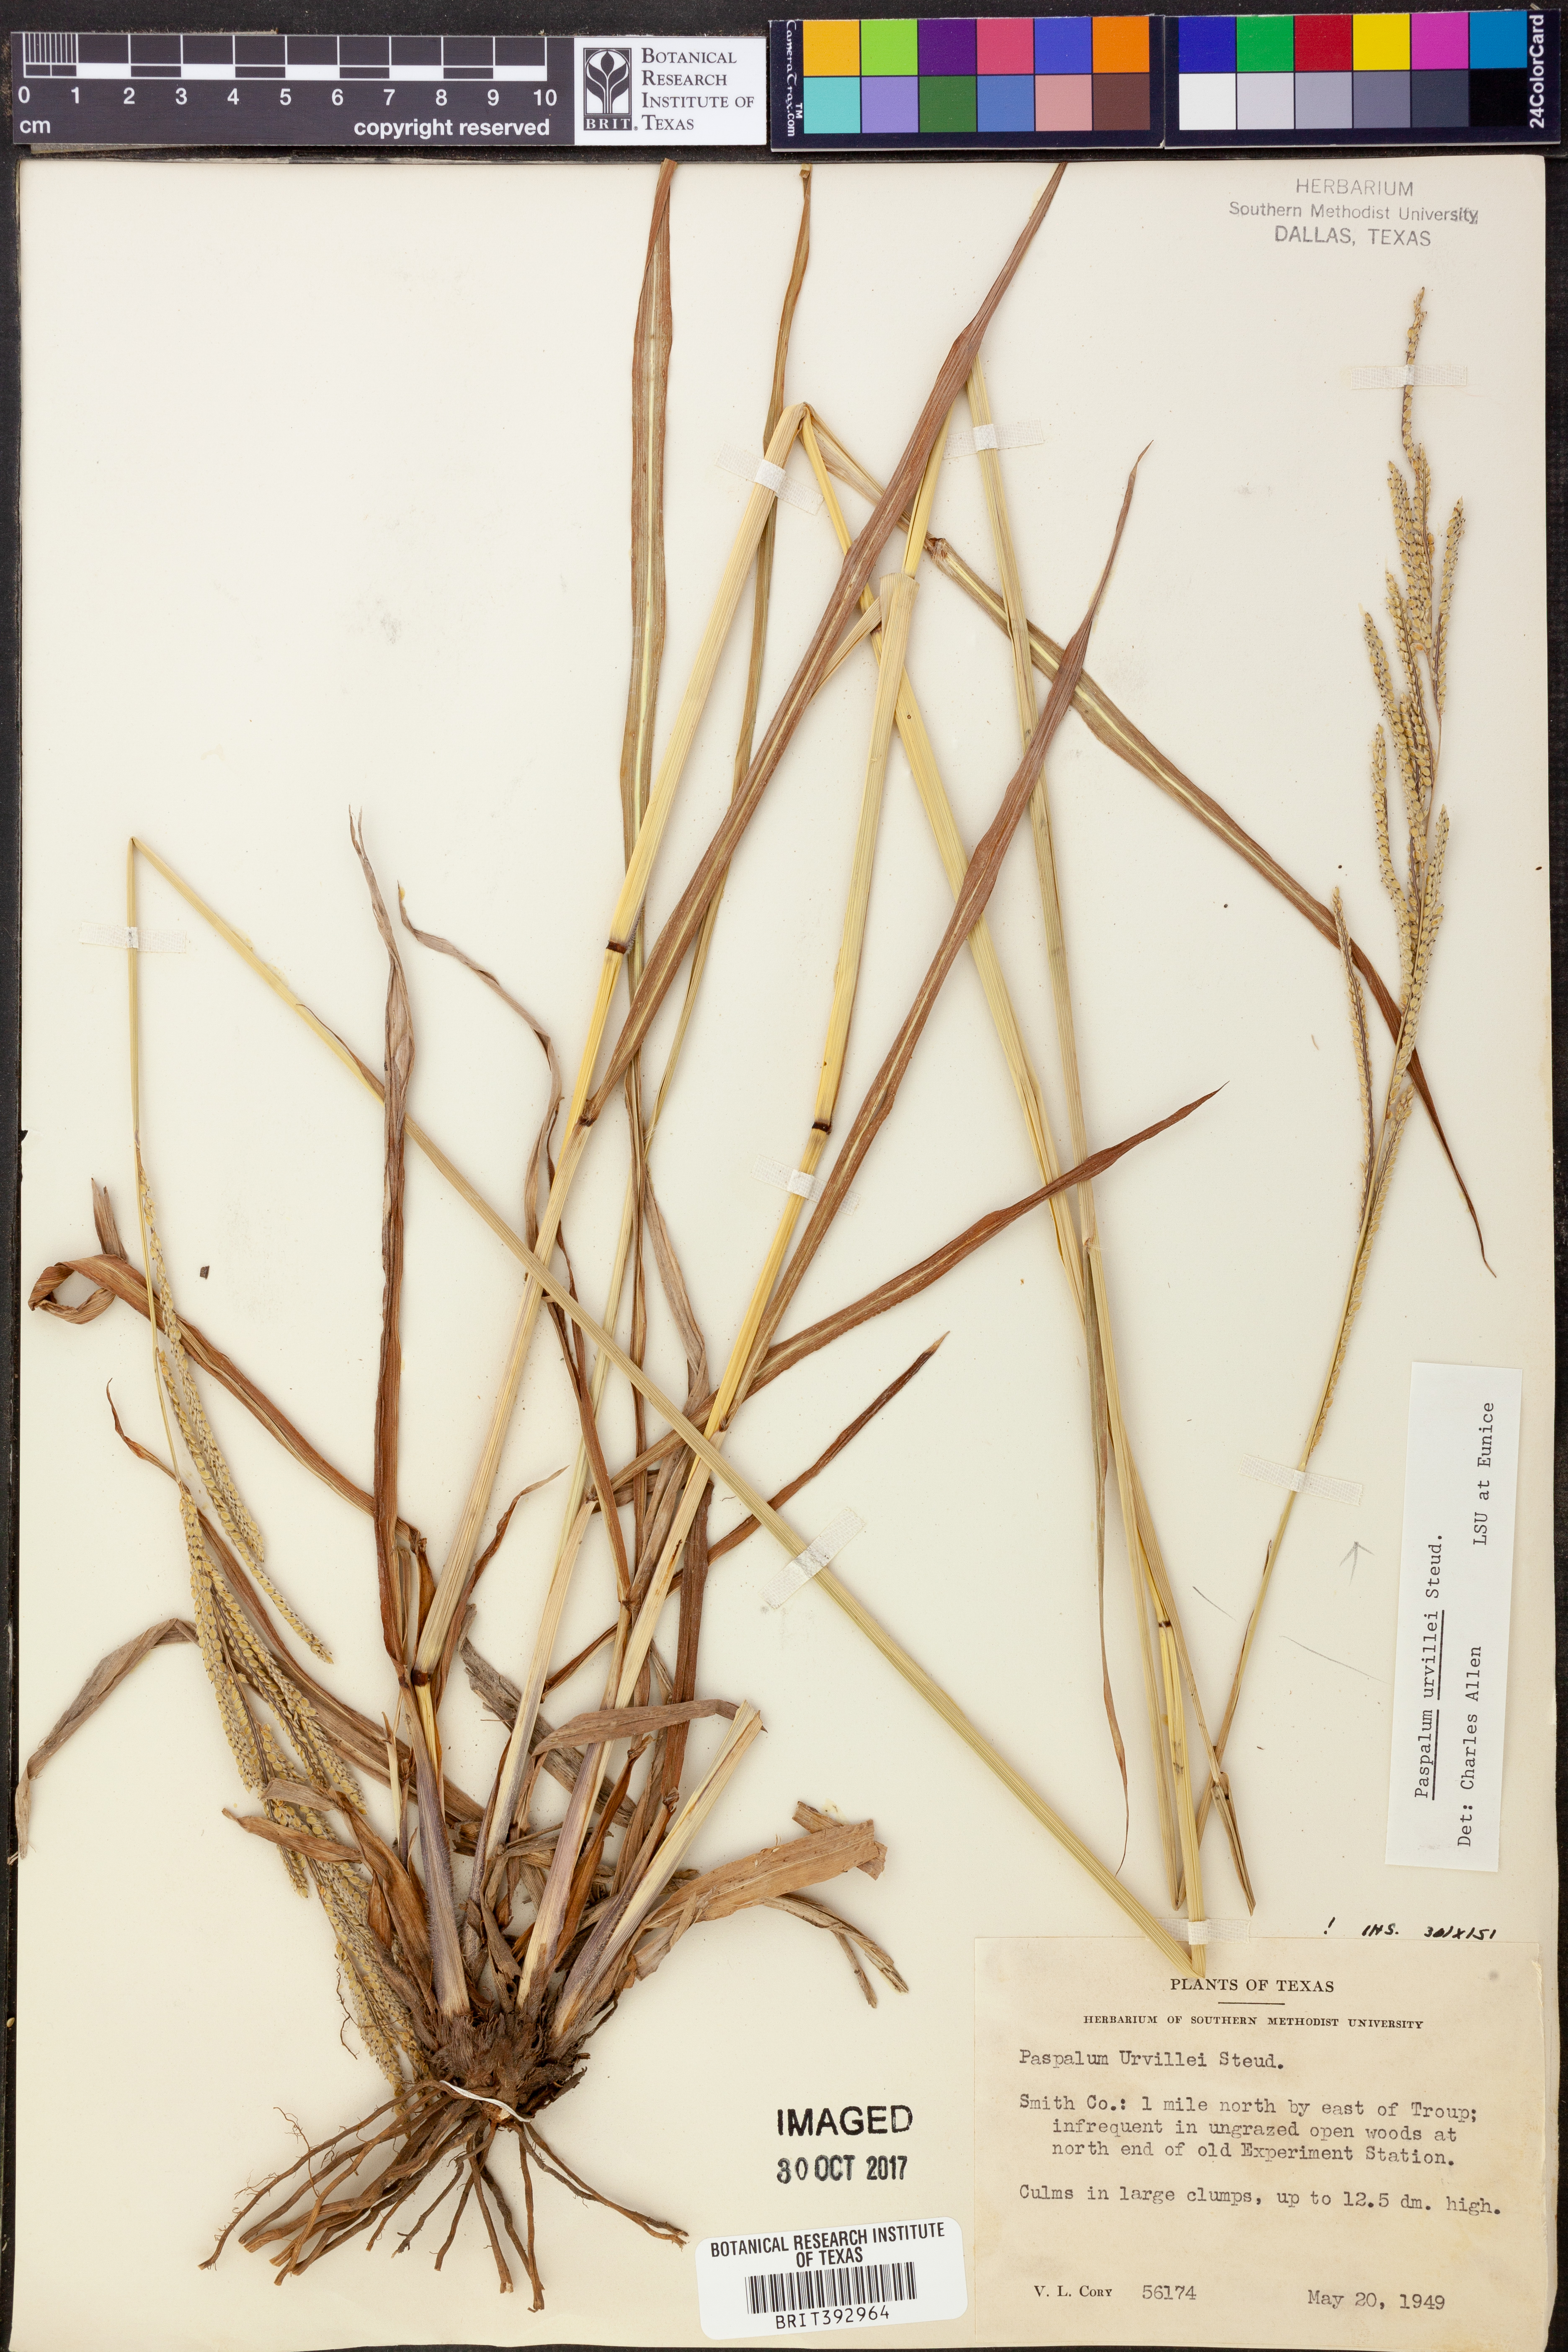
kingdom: Plantae
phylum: Tracheophyta
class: Liliopsida
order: Poales
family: Poaceae
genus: Paspalum
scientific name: Paspalum urvillei
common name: Vasey's grass
